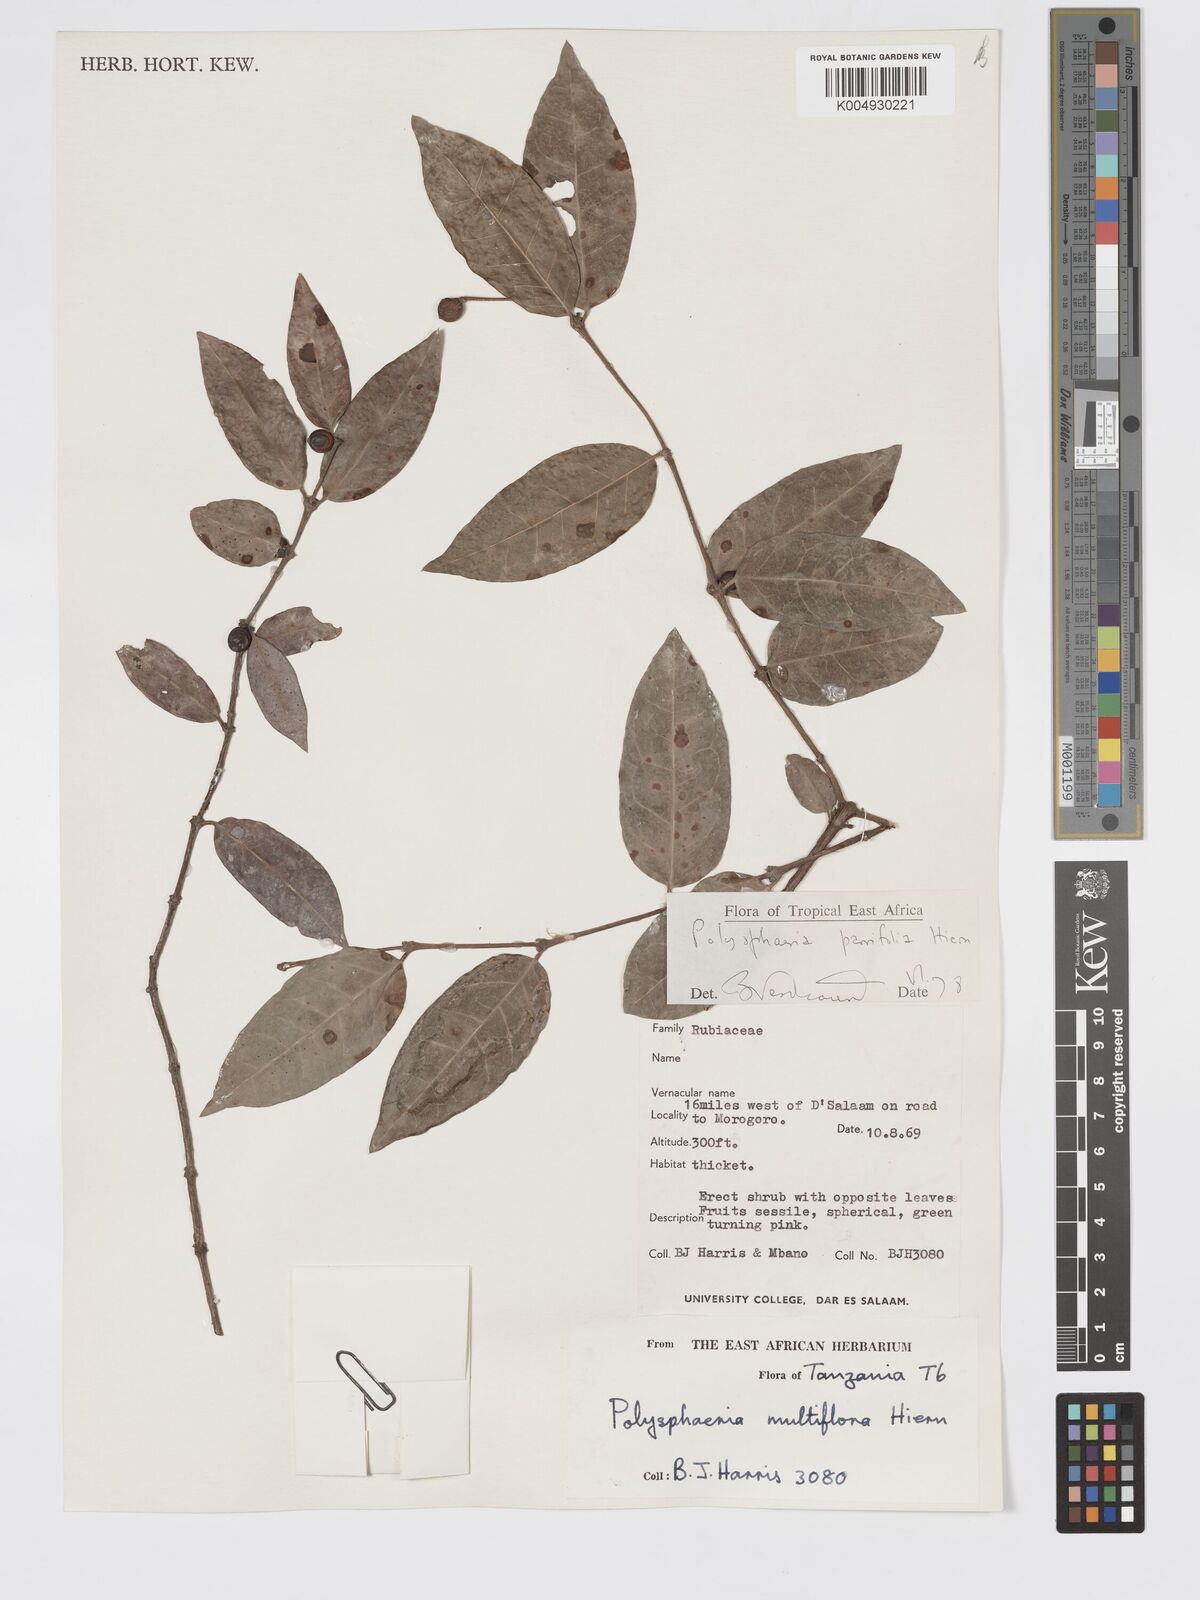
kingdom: Plantae
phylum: Tracheophyta
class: Magnoliopsida
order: Gentianales
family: Rubiaceae
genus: Polysphaeria
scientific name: Polysphaeria parvifolia
